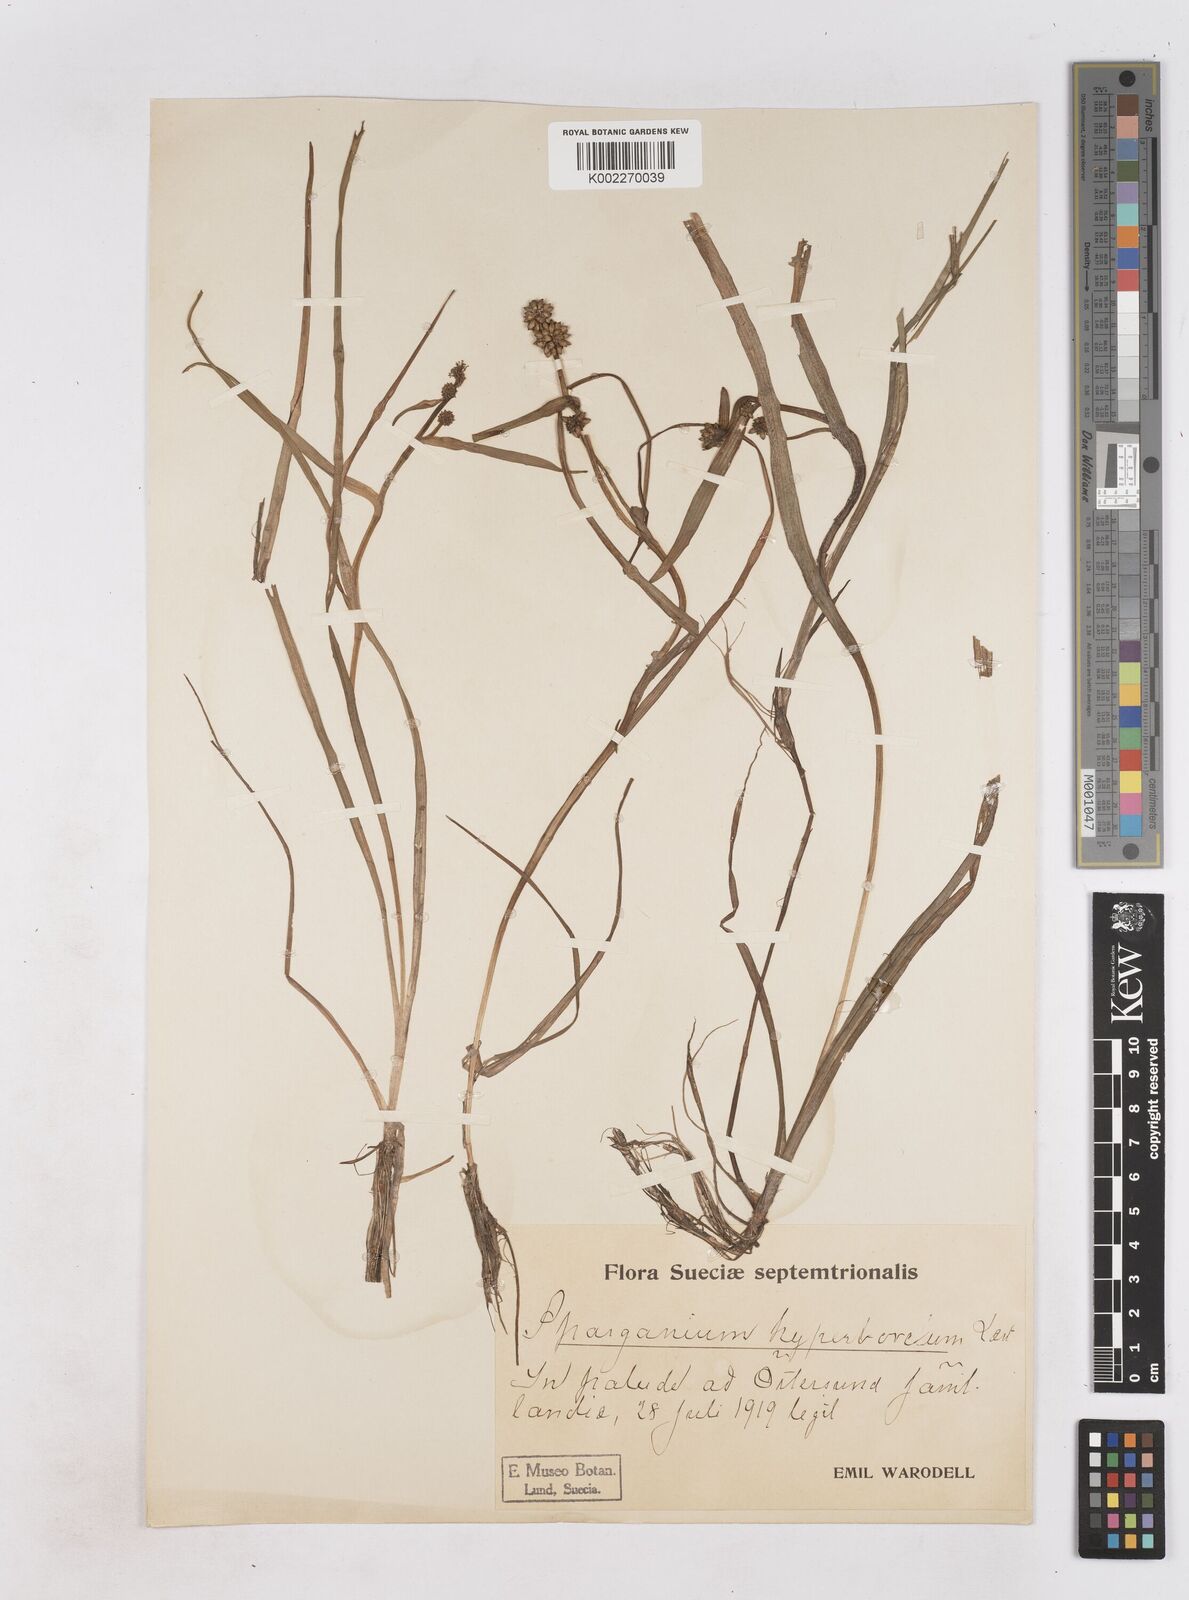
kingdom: Plantae
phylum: Tracheophyta
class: Liliopsida
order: Poales
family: Typhaceae
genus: Sparganium
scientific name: Sparganium hyperboreum
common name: Arctic burreed
